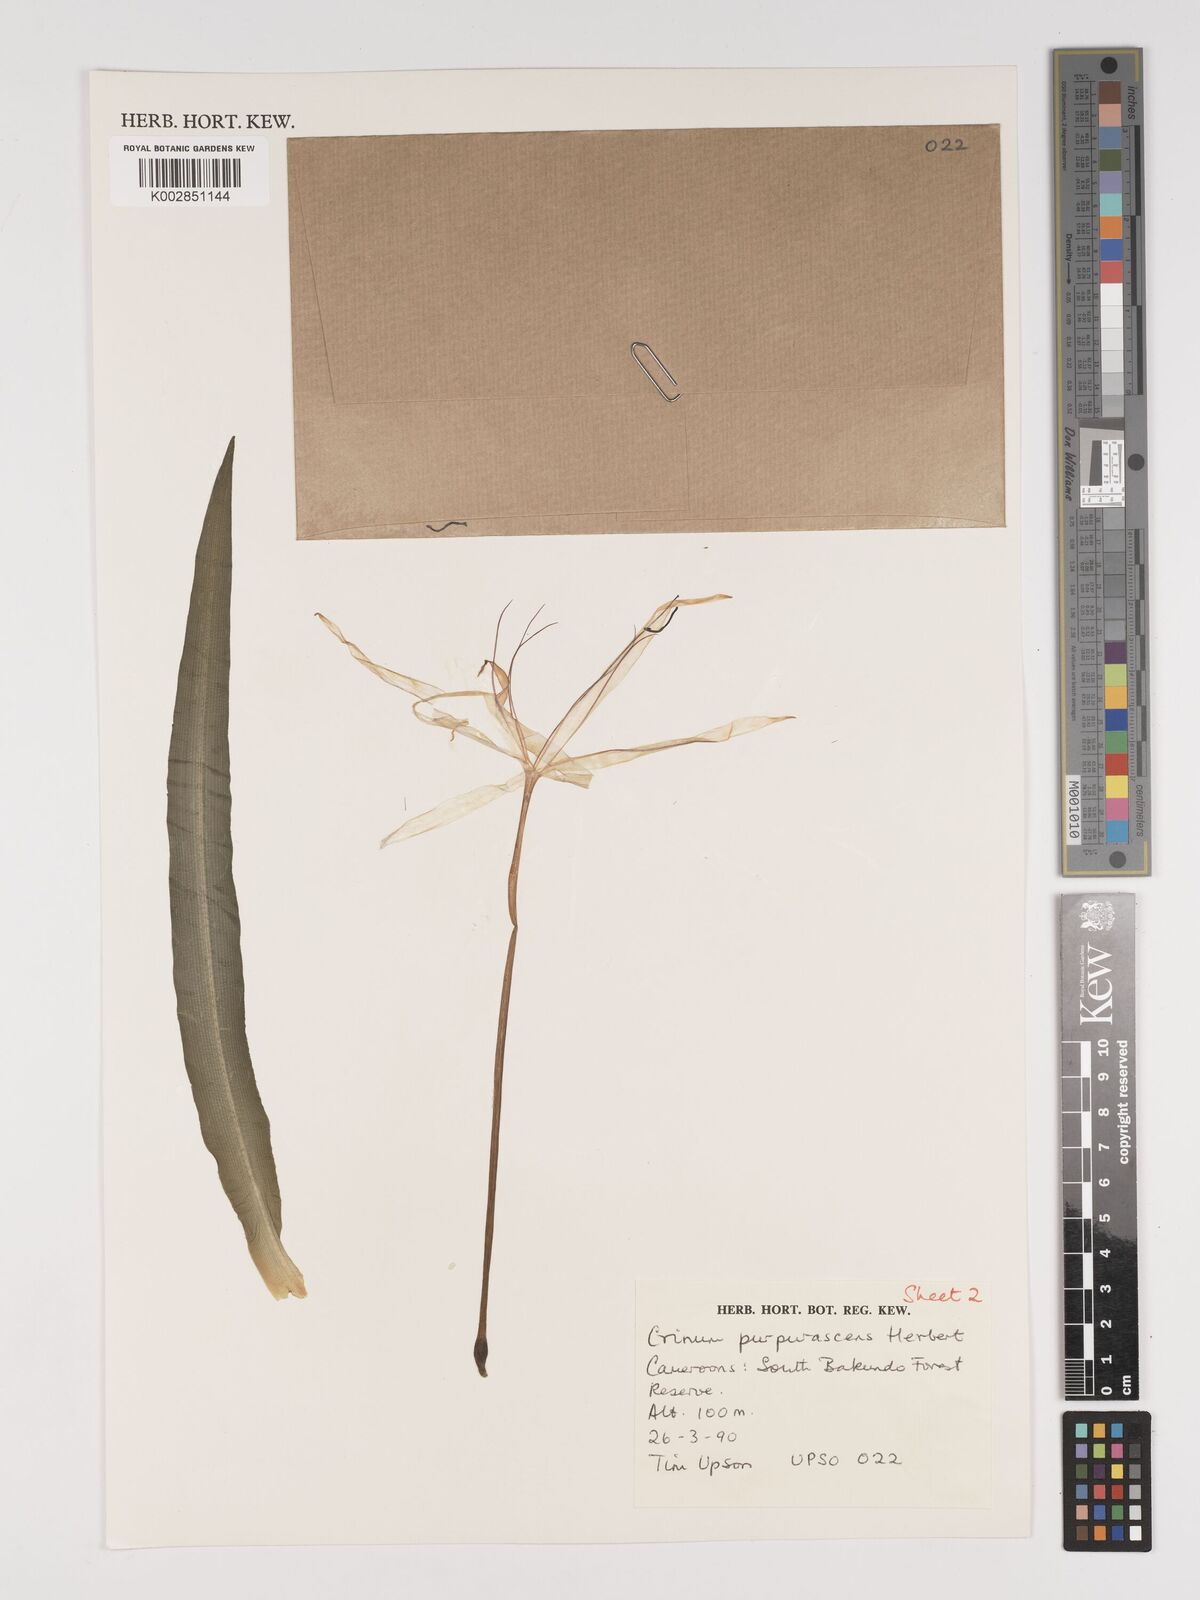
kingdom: Plantae
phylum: Tracheophyta
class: Liliopsida
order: Asparagales
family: Amaryllidaceae
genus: Crinum
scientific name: Crinum purpurascens
